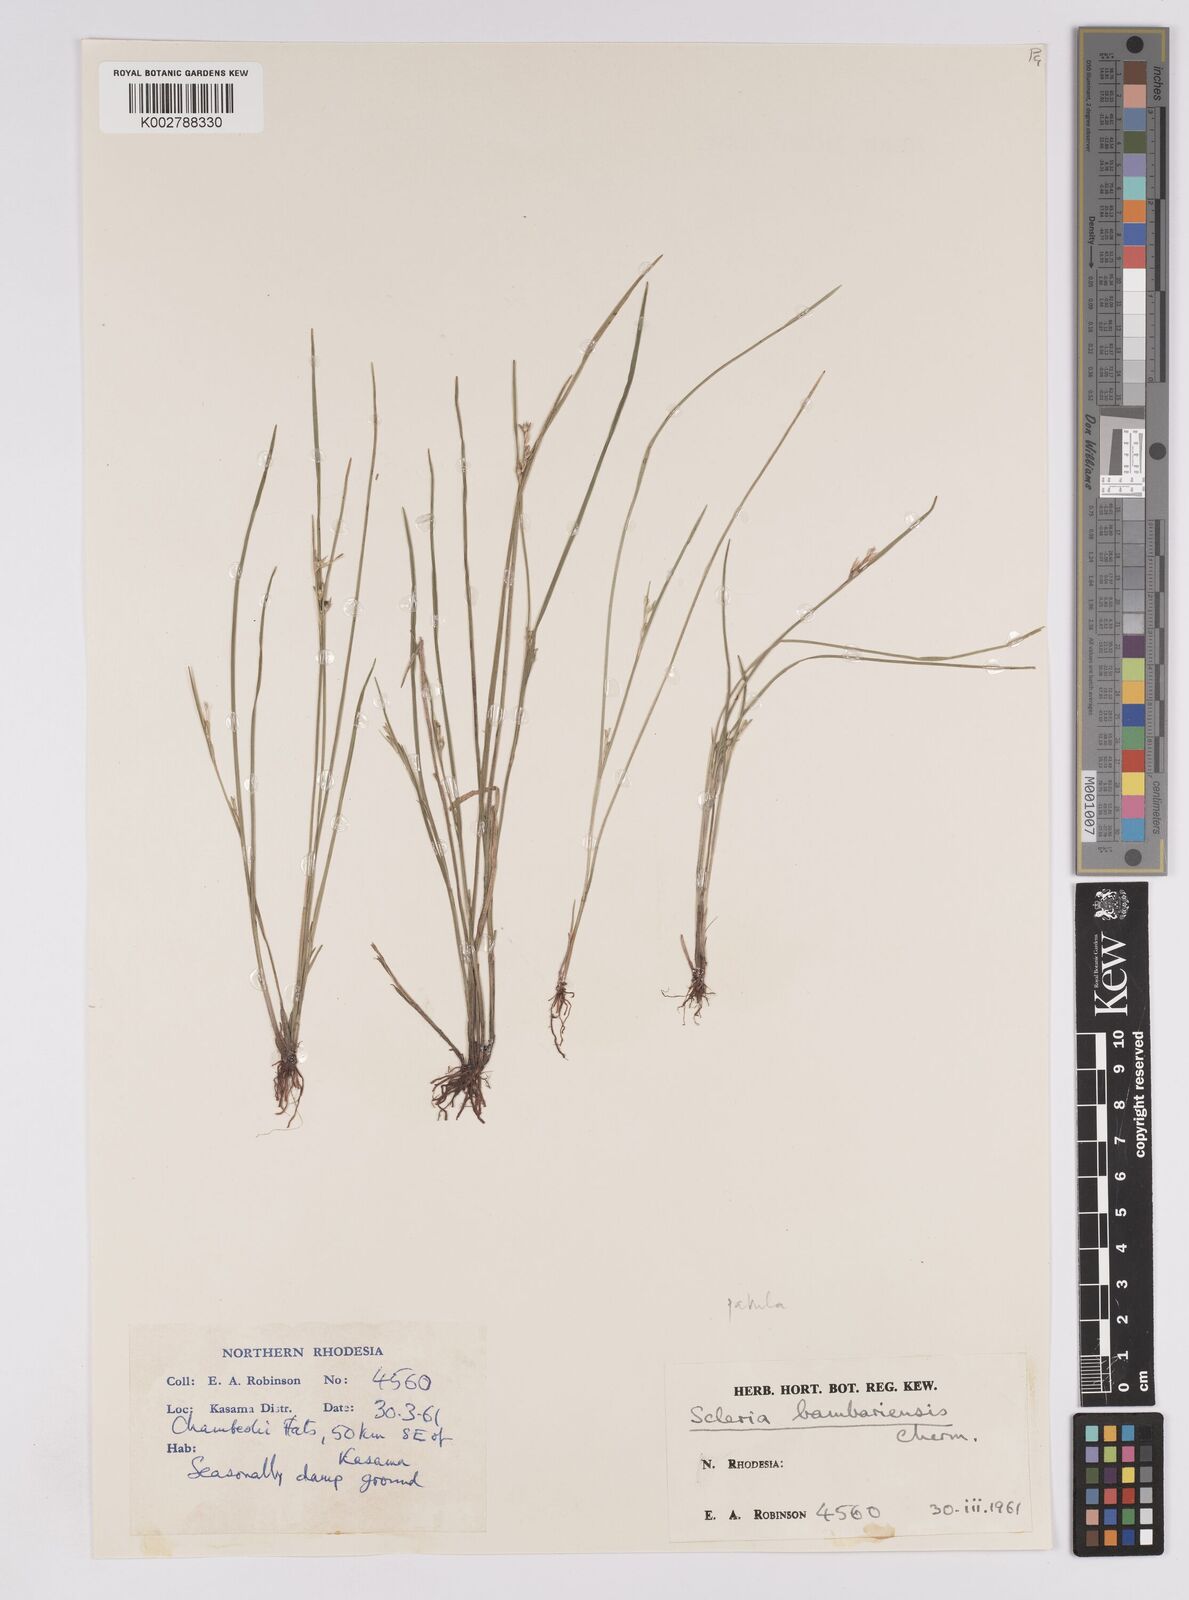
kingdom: Plantae
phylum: Tracheophyta
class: Liliopsida
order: Poales
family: Cyperaceae
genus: Scleria
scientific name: Scleria patula
